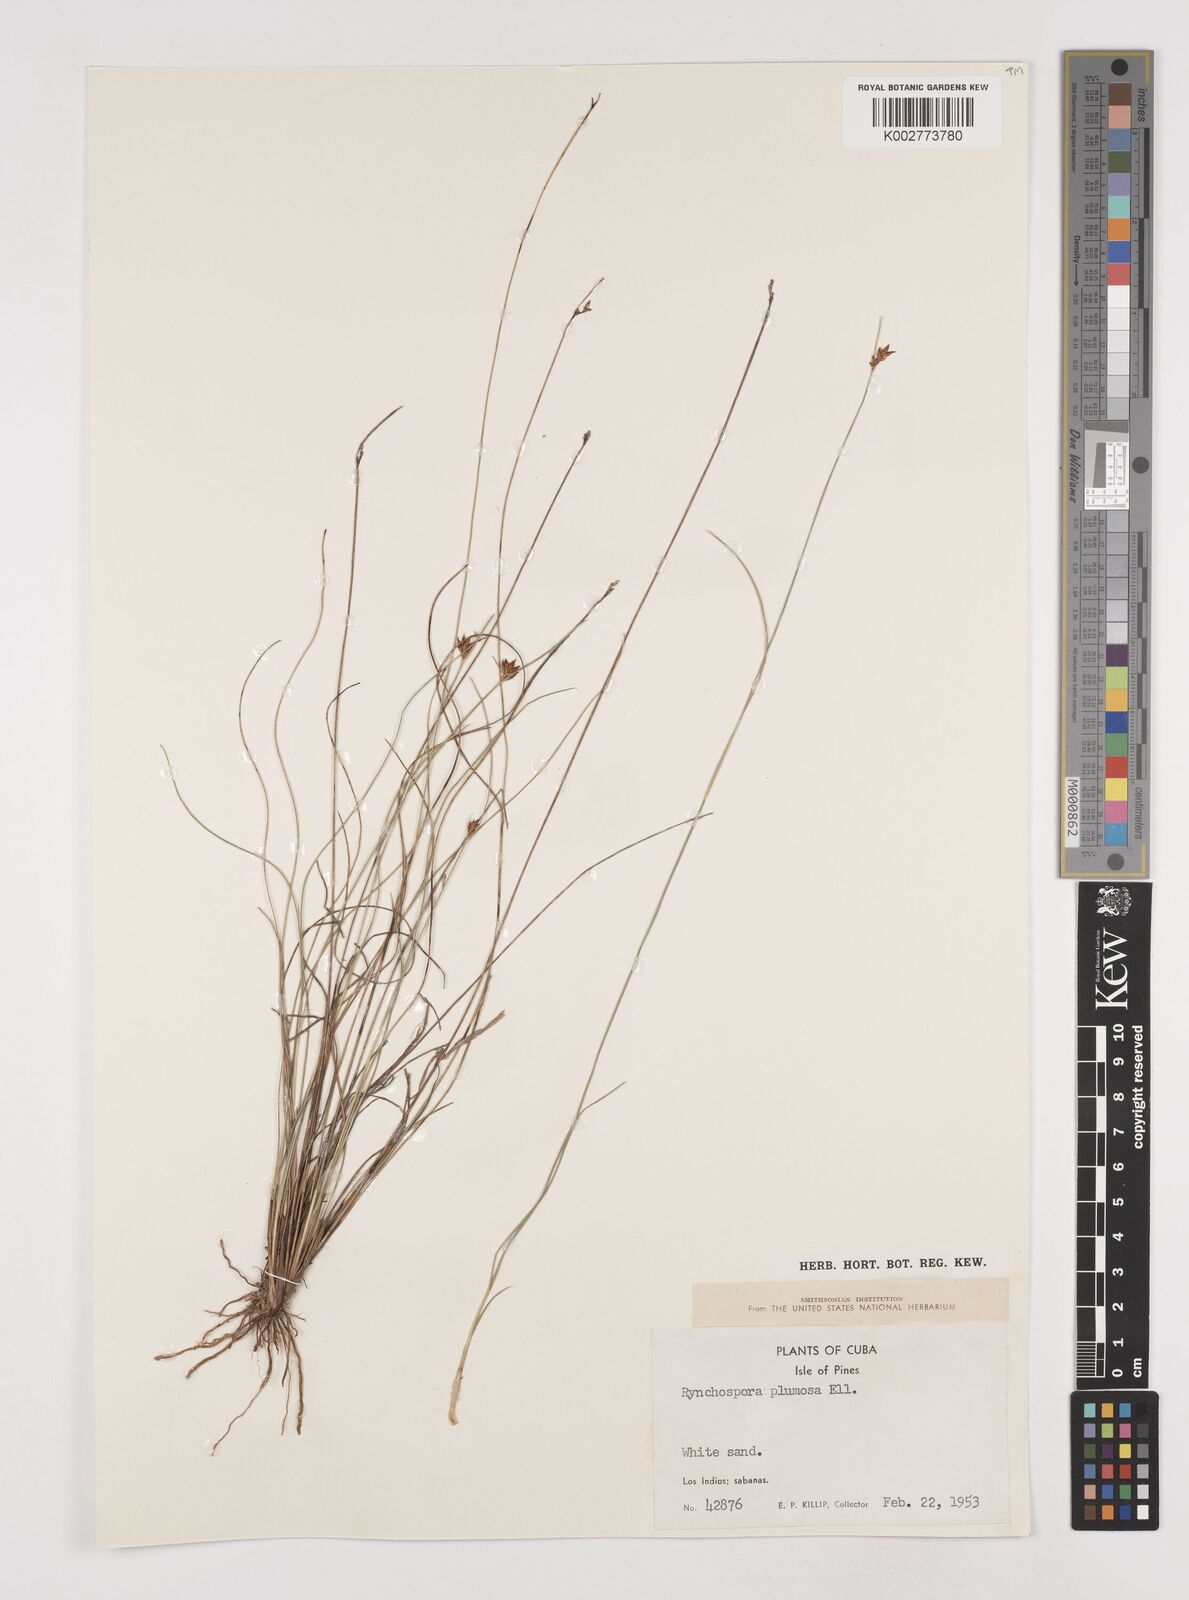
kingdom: Plantae
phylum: Tracheophyta
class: Liliopsida
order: Poales
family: Cyperaceae
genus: Rhynchospora
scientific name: Rhynchospora plumosa
